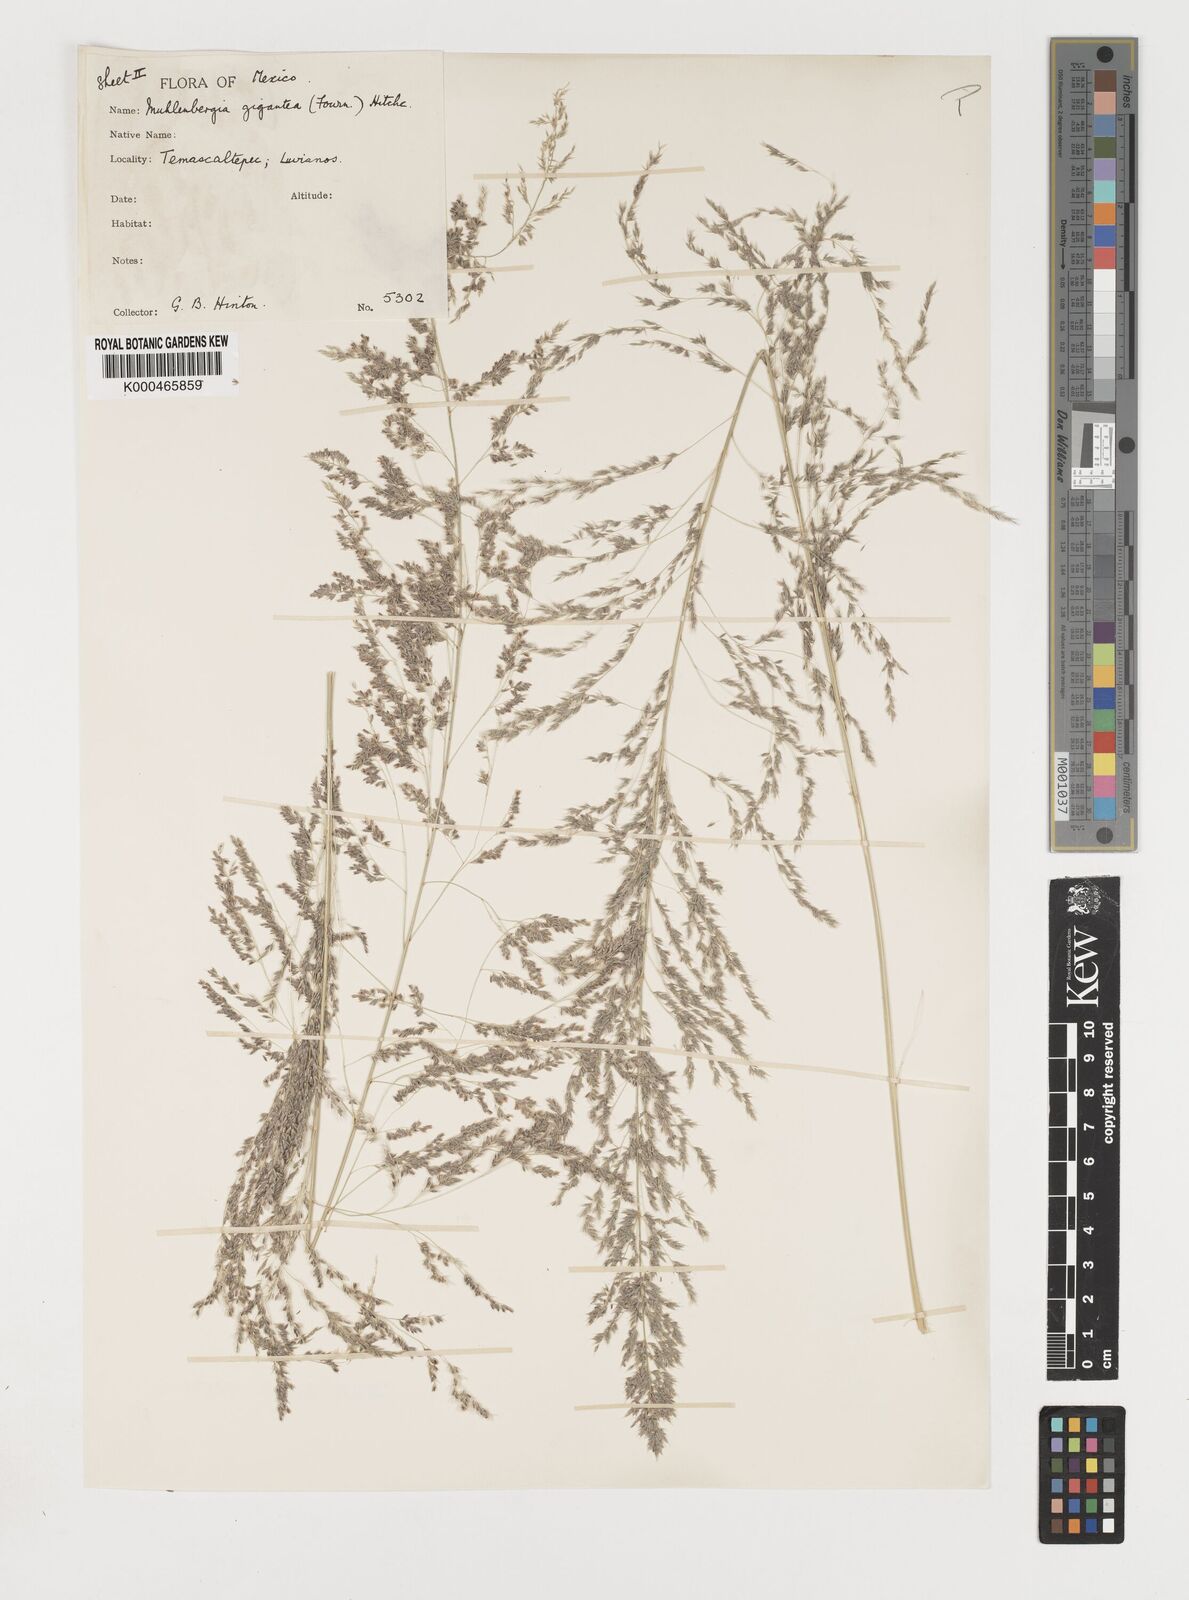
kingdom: Plantae
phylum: Tracheophyta
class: Liliopsida
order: Poales
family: Poaceae
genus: Muhlenbergia
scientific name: Muhlenbergia gigantea
